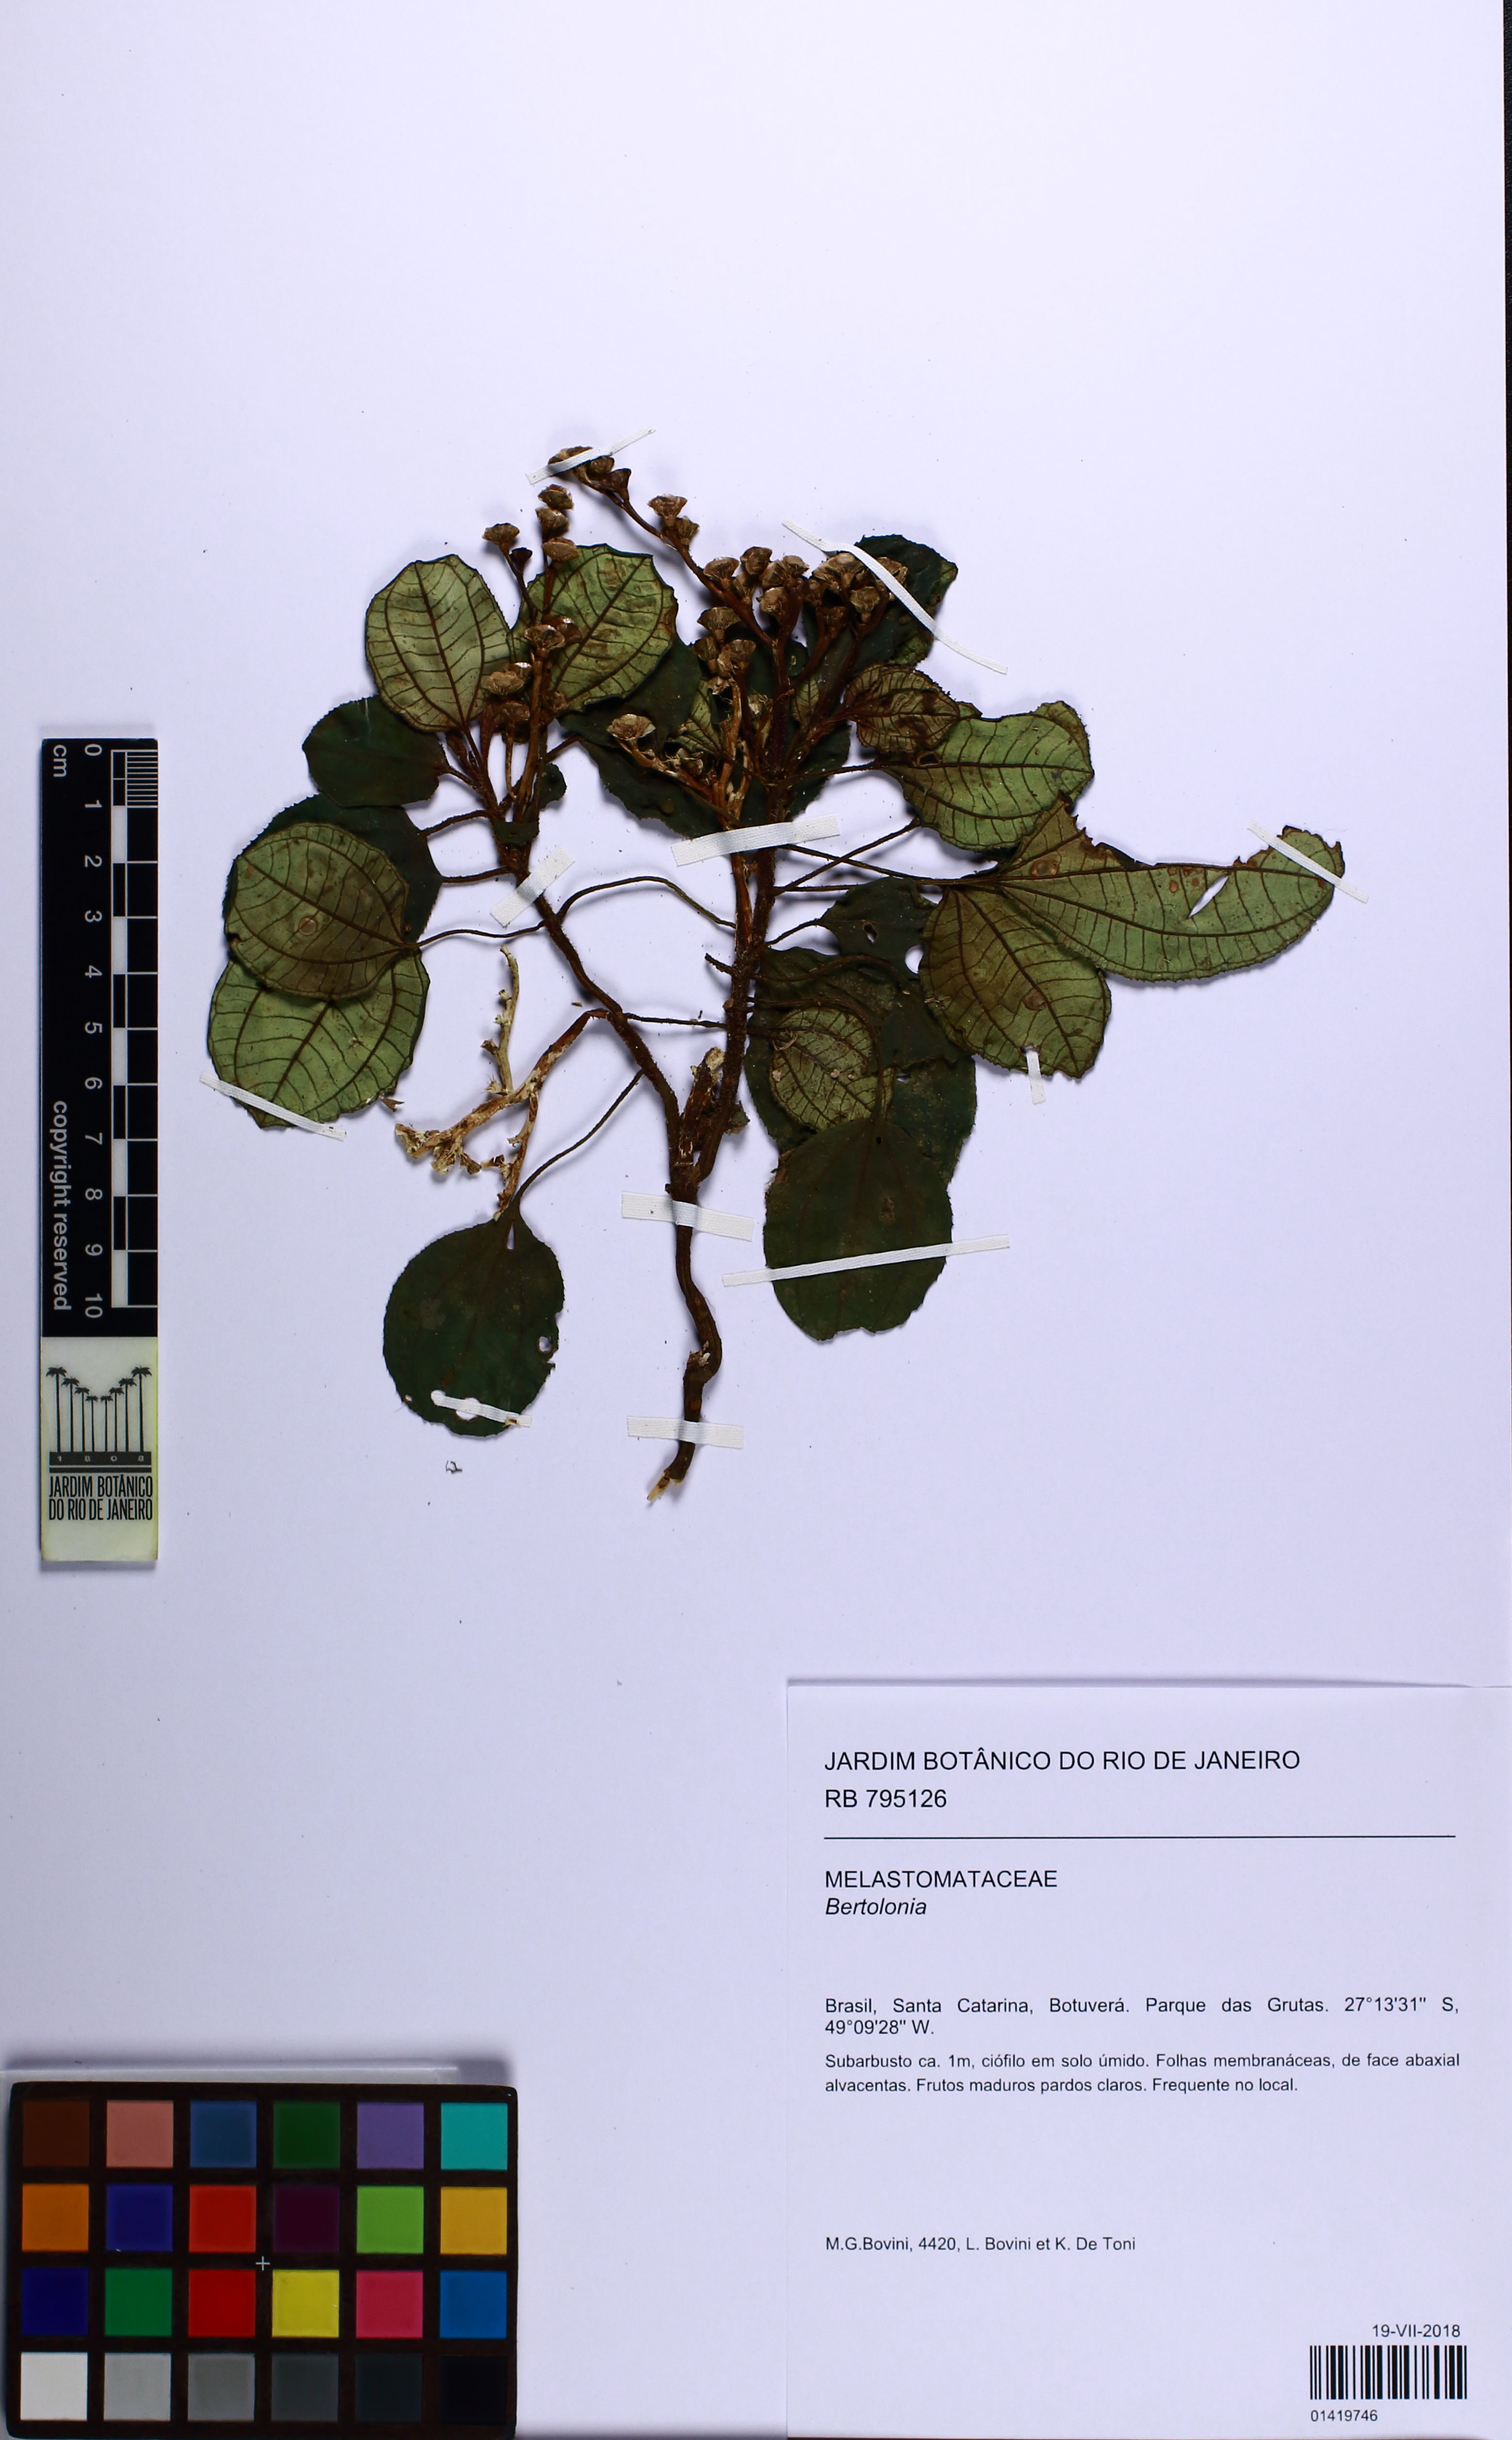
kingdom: Plantae
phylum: Tracheophyta
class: Magnoliopsida
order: Myrtales
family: Melastomataceae
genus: Bertolonia
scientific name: Bertolonia
